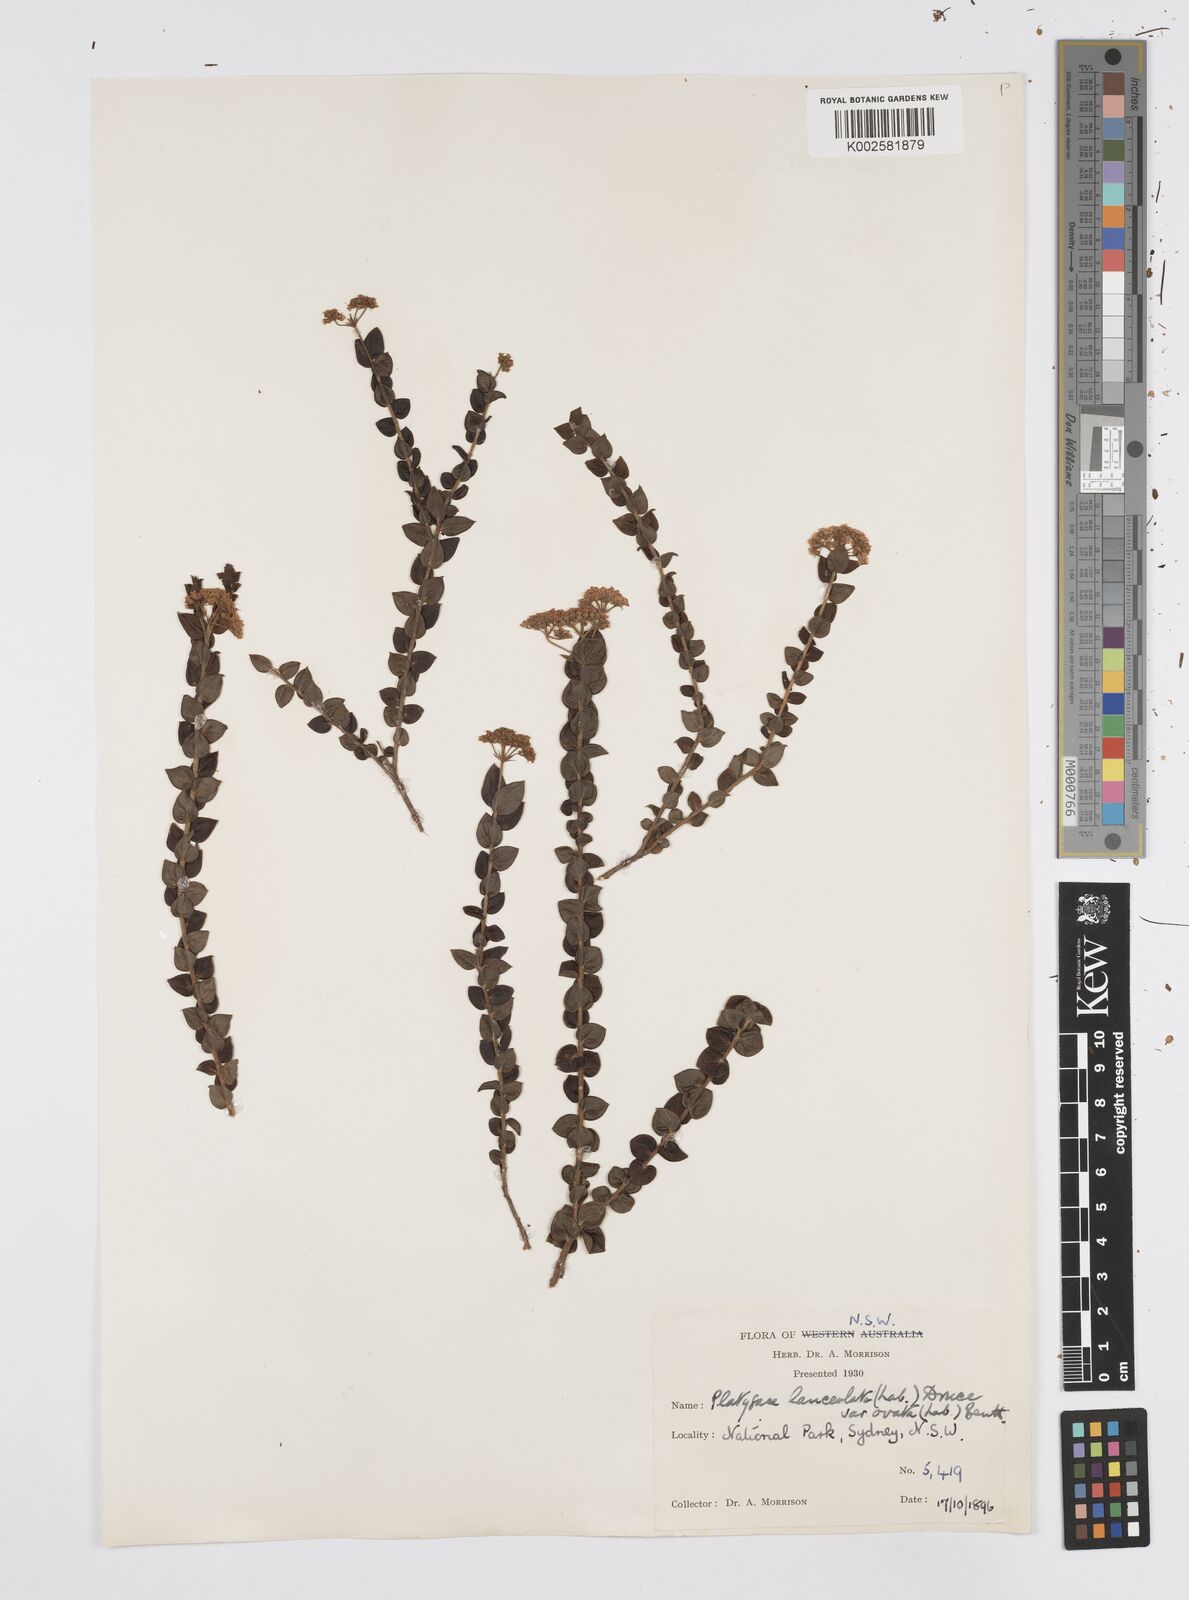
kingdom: Plantae
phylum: Tracheophyta
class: Magnoliopsida
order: Apiales
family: Apiaceae
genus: Platysace
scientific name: Platysace lanceolata
